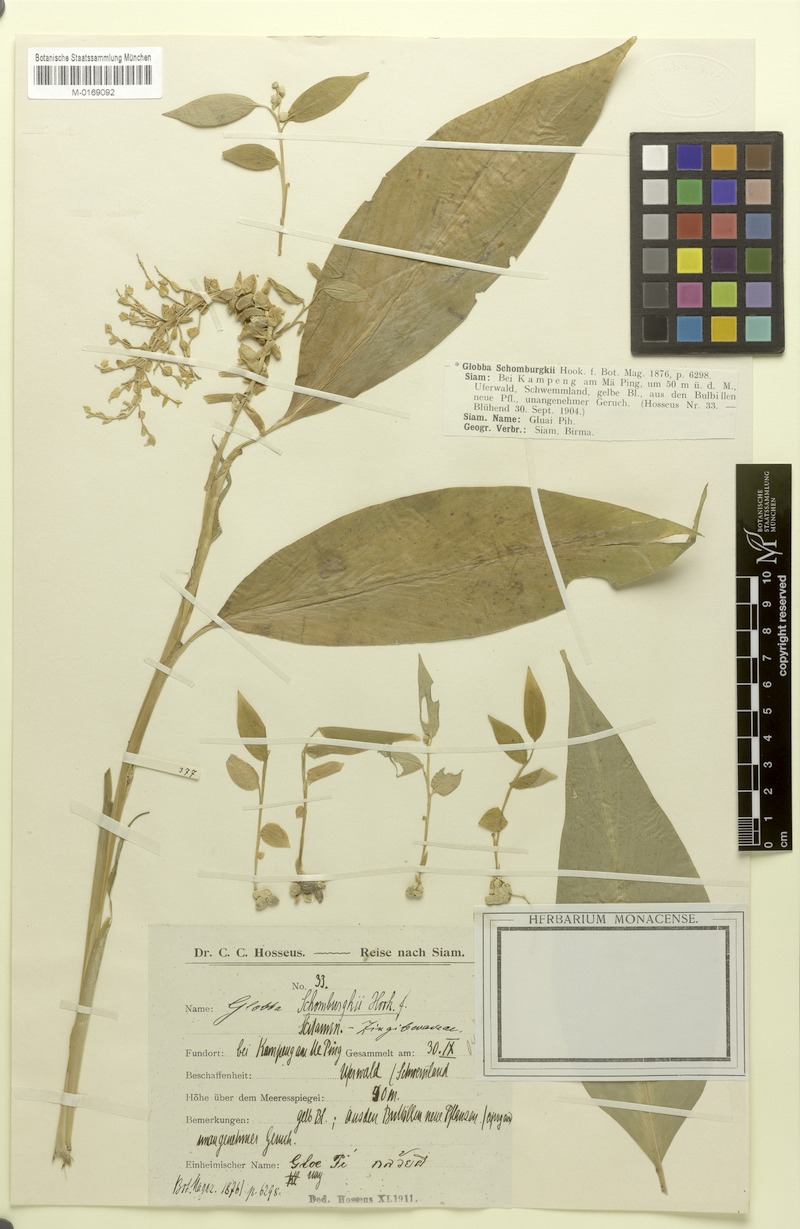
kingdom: Plantae
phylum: Tracheophyta
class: Liliopsida
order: Zingiberales
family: Zingiberaceae
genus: Globba
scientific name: Globba schomburgkii
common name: Dancing girl ginger
